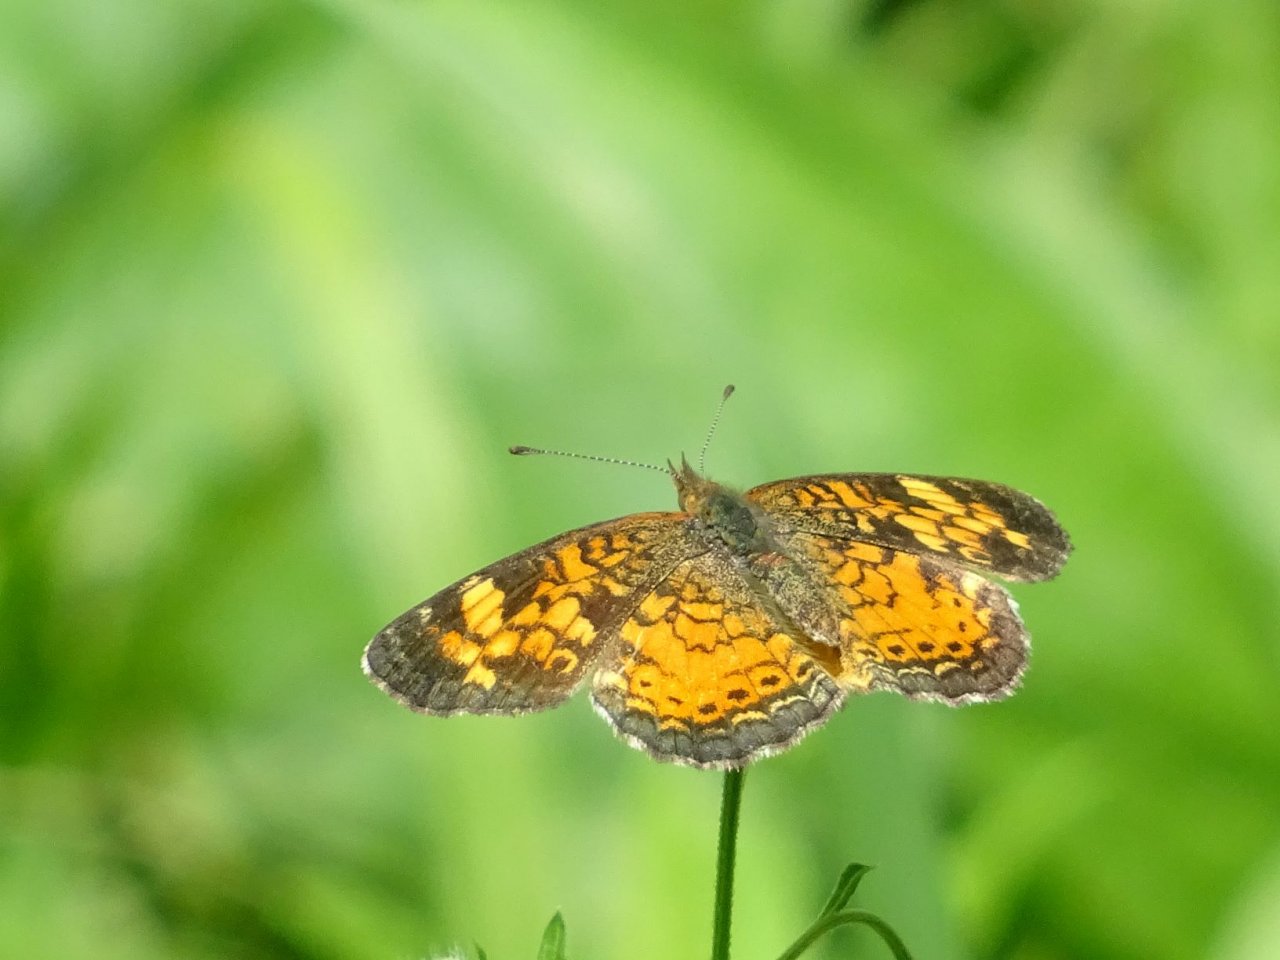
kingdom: Animalia
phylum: Arthropoda
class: Insecta
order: Lepidoptera
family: Nymphalidae
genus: Phyciodes
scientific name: Phyciodes tharos
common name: Pearl Crescent
